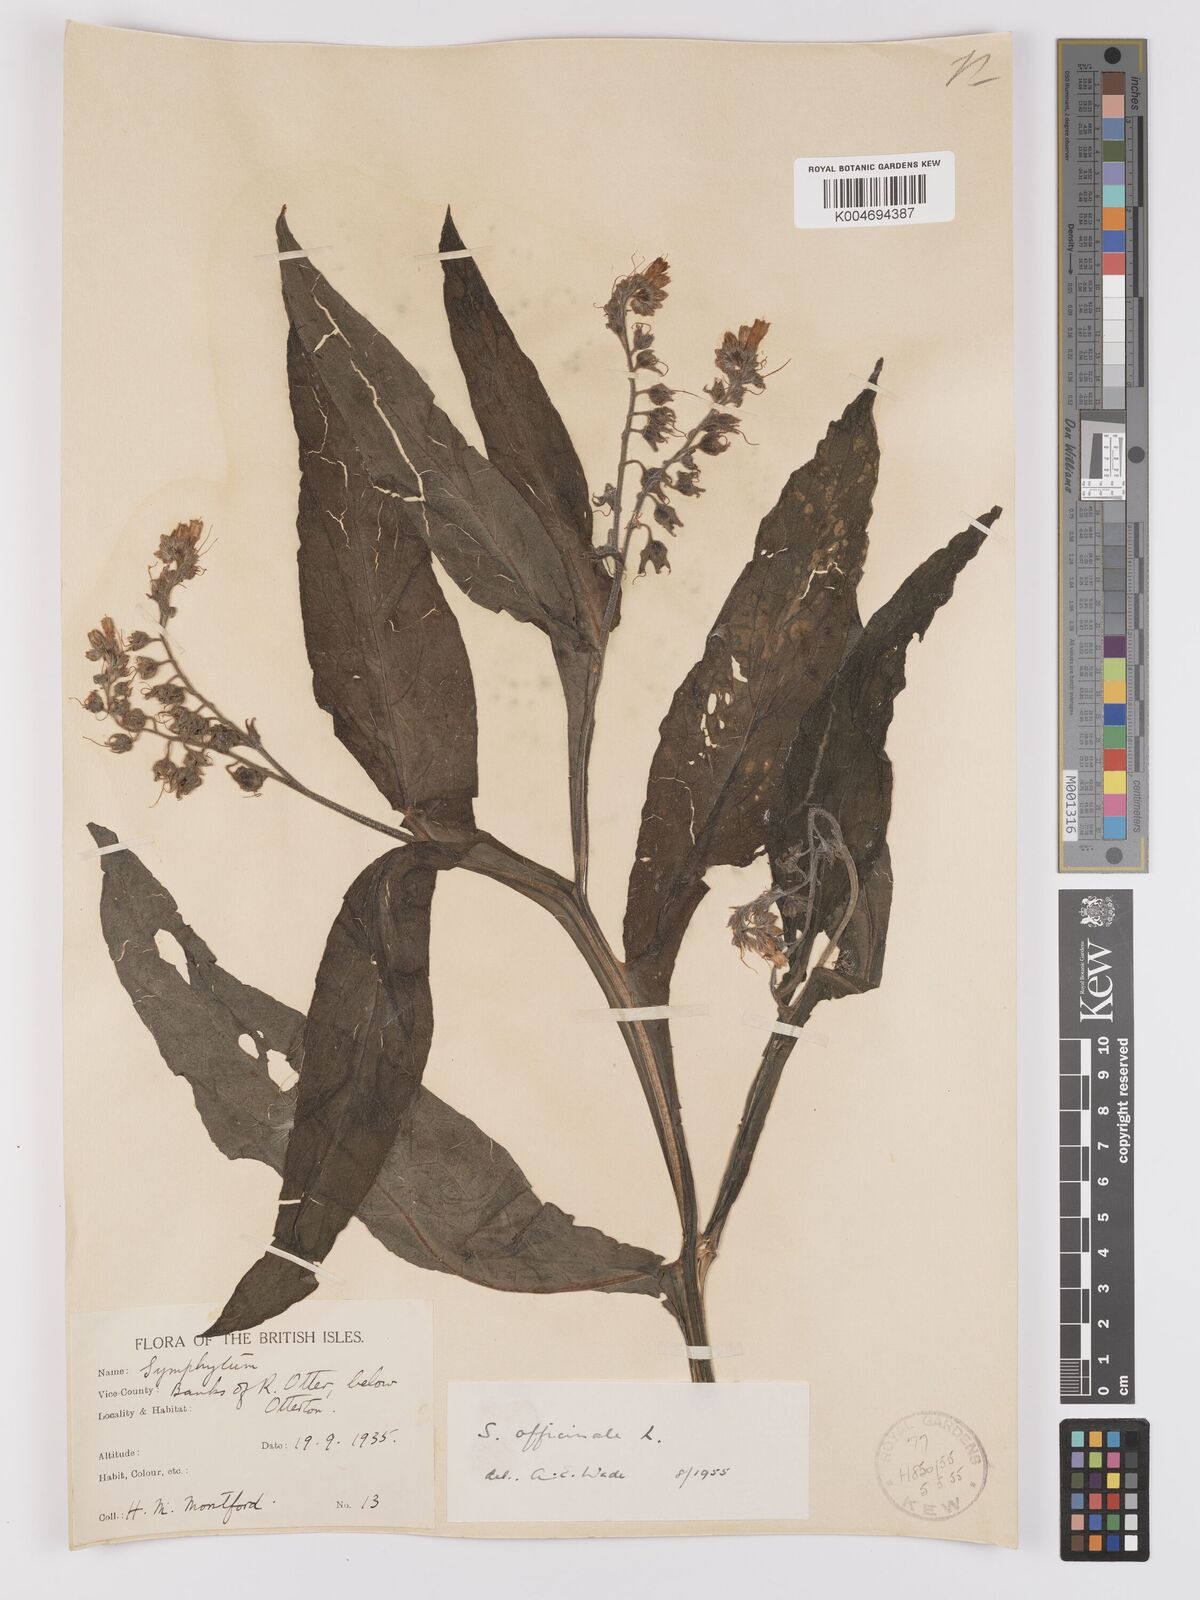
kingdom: Plantae
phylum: Tracheophyta
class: Magnoliopsida
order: Boraginales
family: Boraginaceae
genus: Symphytum
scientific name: Symphytum officinale
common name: Common comfrey
